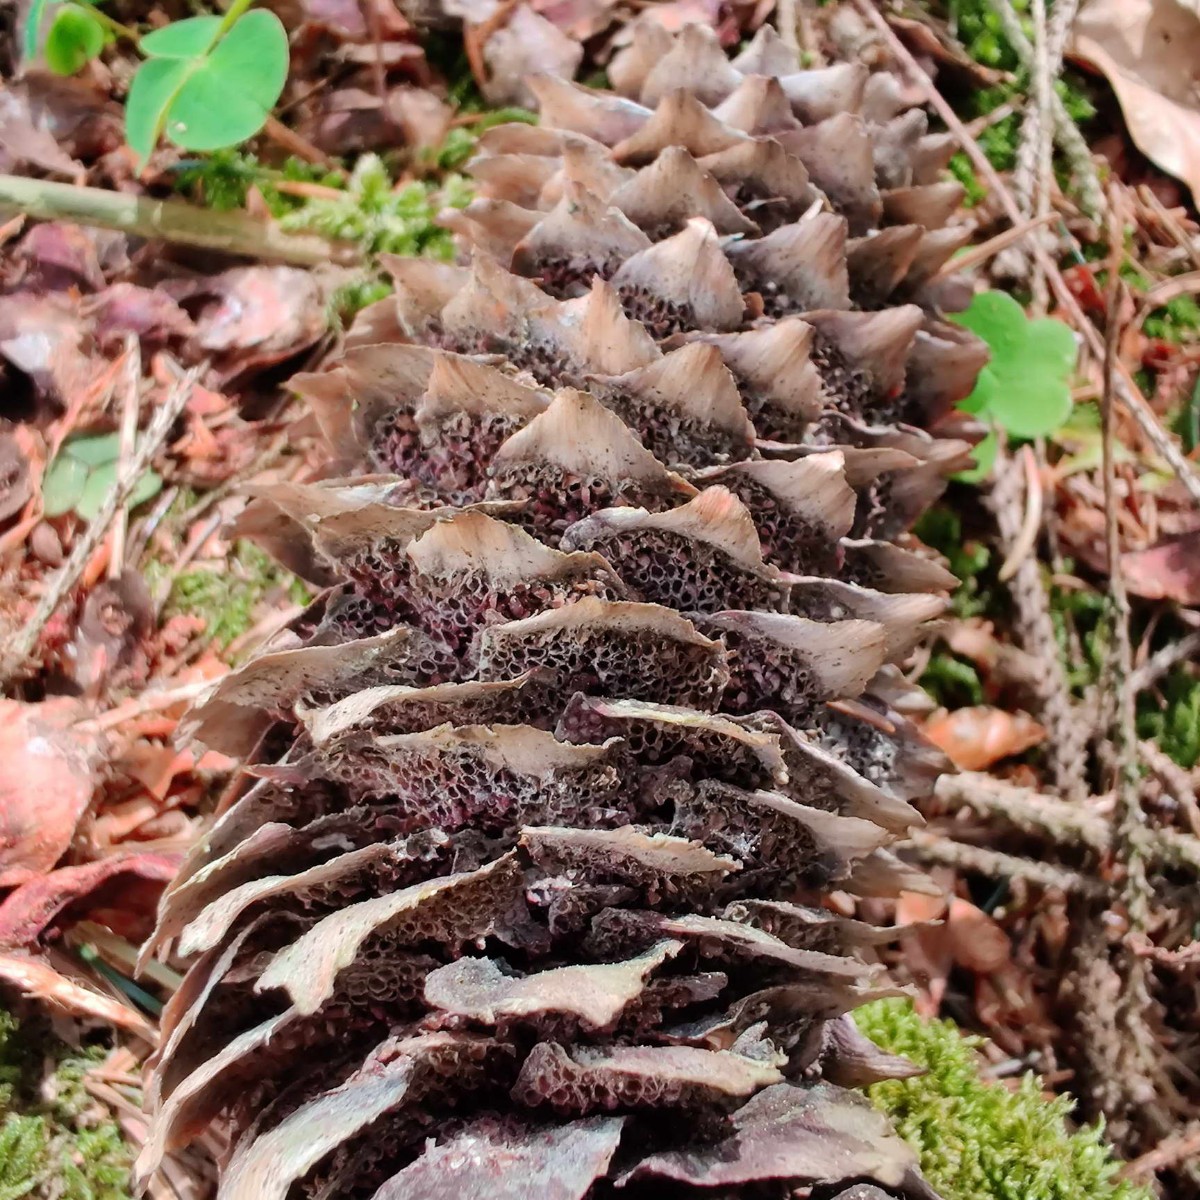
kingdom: Fungi
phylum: Basidiomycota
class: Pucciniomycetes
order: Pucciniales
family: Pucciniastraceae
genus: Thekopsora
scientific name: Thekopsora areolata
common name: grankogle-nålerust
